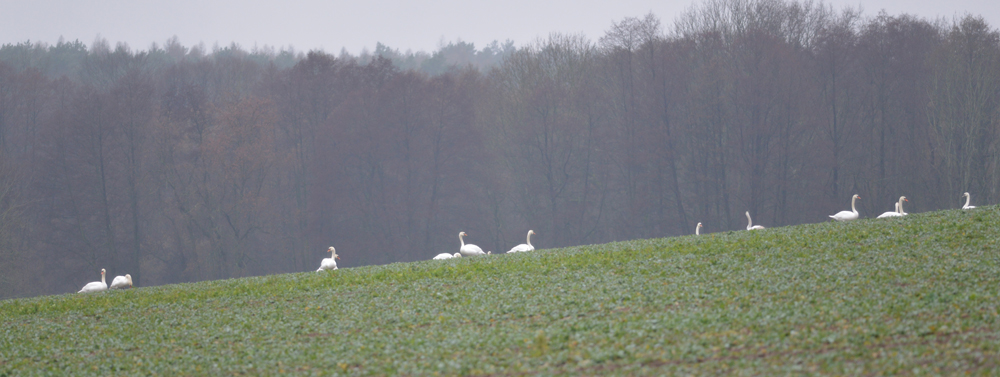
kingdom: Animalia
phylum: Chordata
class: Aves
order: Anseriformes
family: Anatidae
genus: Cygnus
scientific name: Cygnus olor
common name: Mute swan
